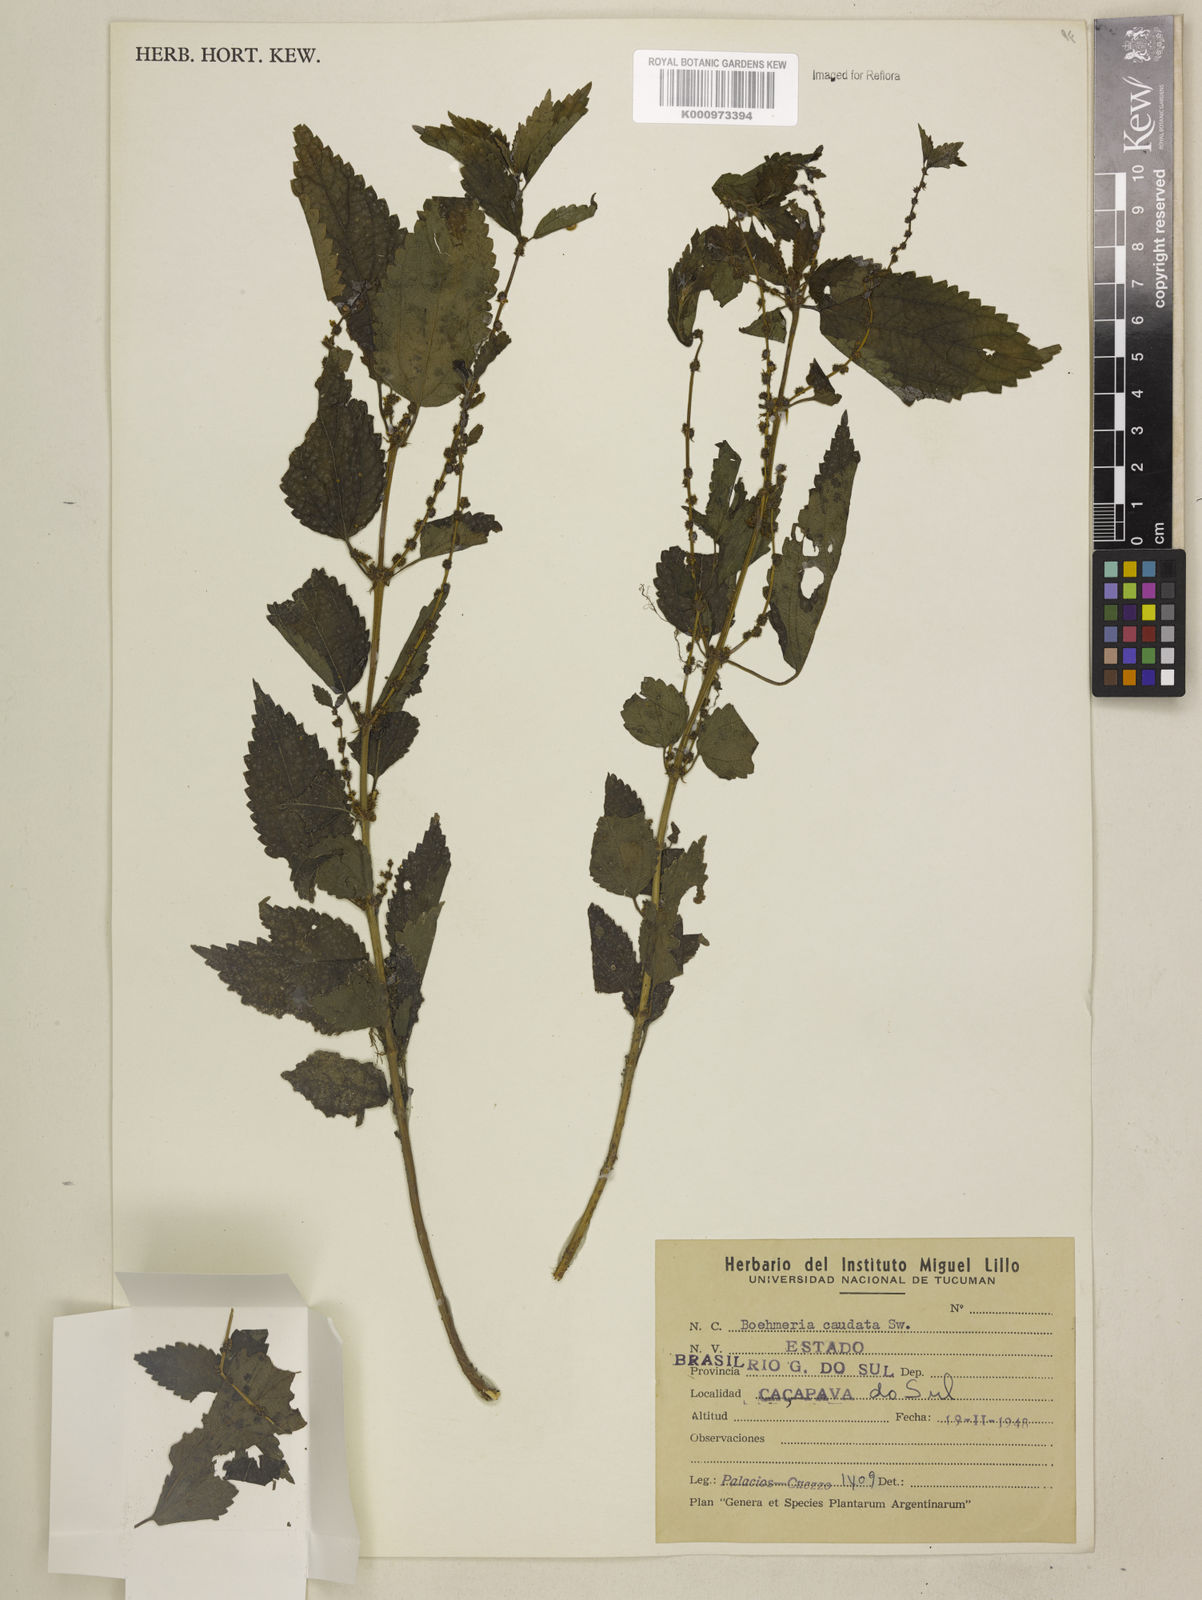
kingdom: Plantae
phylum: Tracheophyta
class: Magnoliopsida
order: Rosales
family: Urticaceae
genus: Boehmeria
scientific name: Boehmeria cylindrica
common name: Bog-hemp
